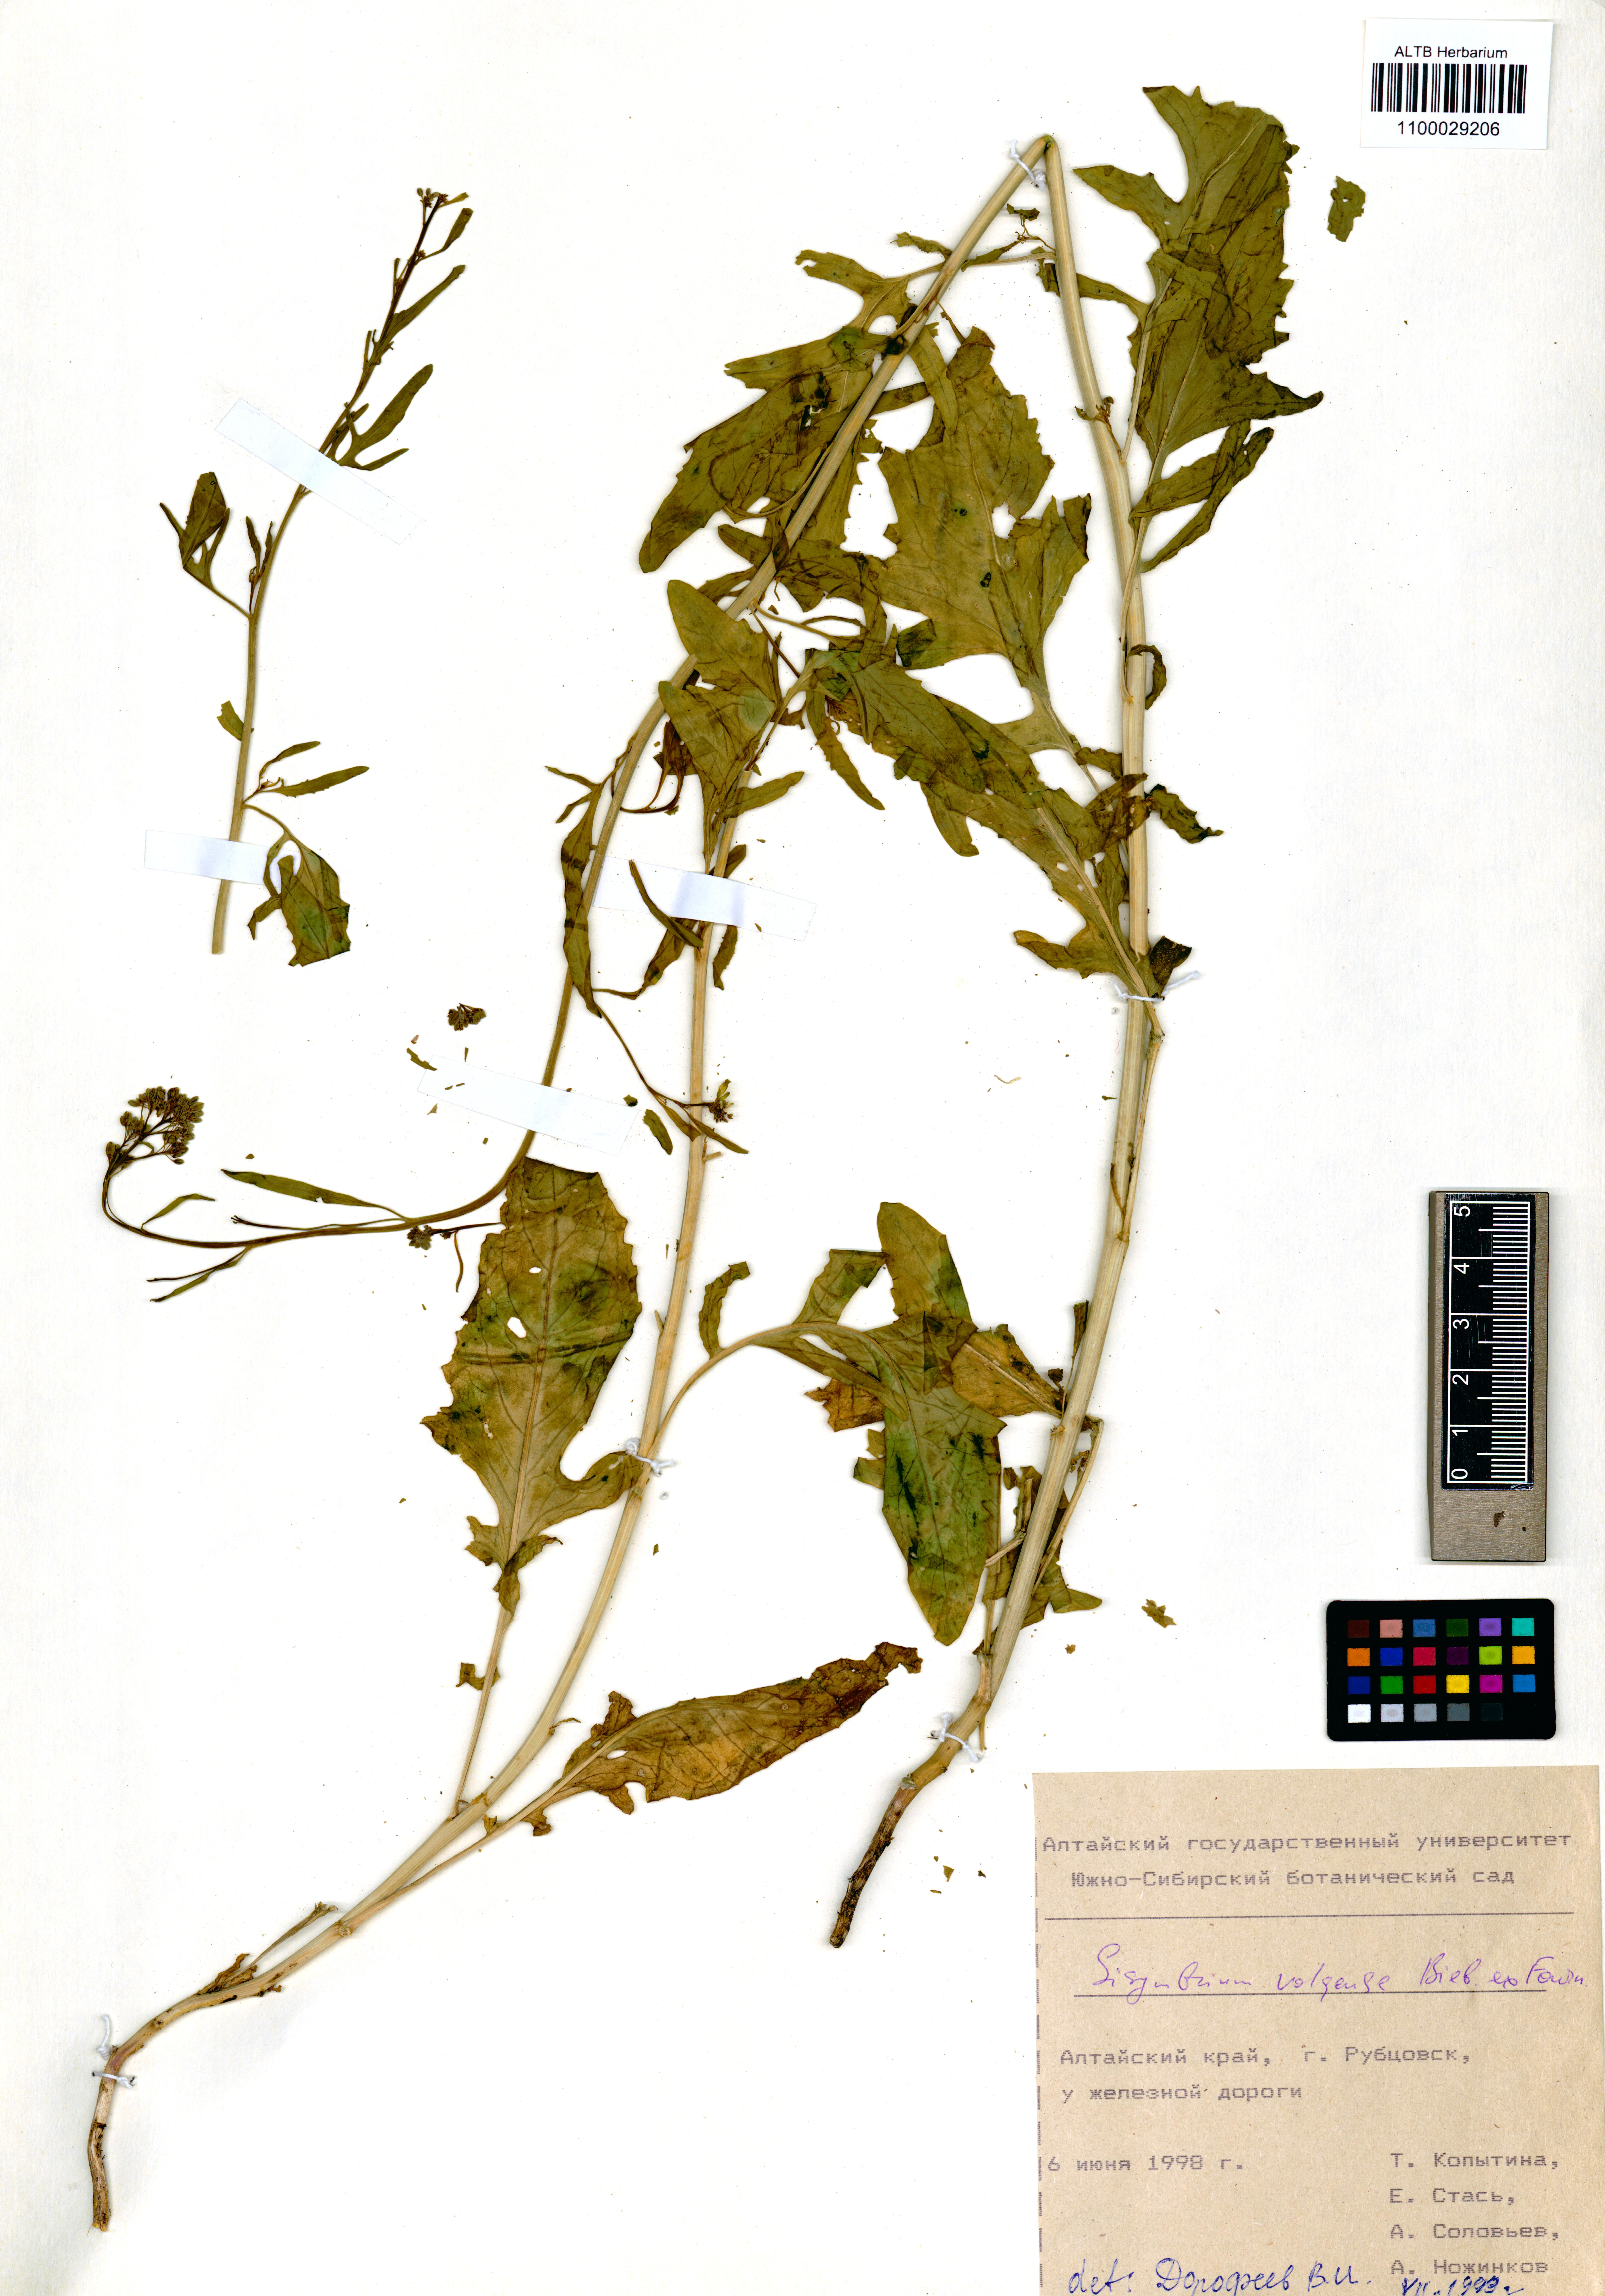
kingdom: Plantae
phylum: Tracheophyta
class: Magnoliopsida
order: Brassicales
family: Brassicaceae
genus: Sisymbrium
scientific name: Sisymbrium volgense
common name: Russian mustard
